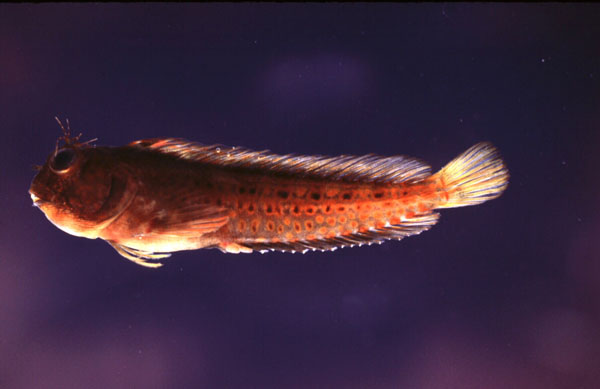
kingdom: Animalia
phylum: Chordata
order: Perciformes
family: Blenniidae
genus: Parablennius
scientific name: Parablennius pilicornis
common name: Ringneck blenny
